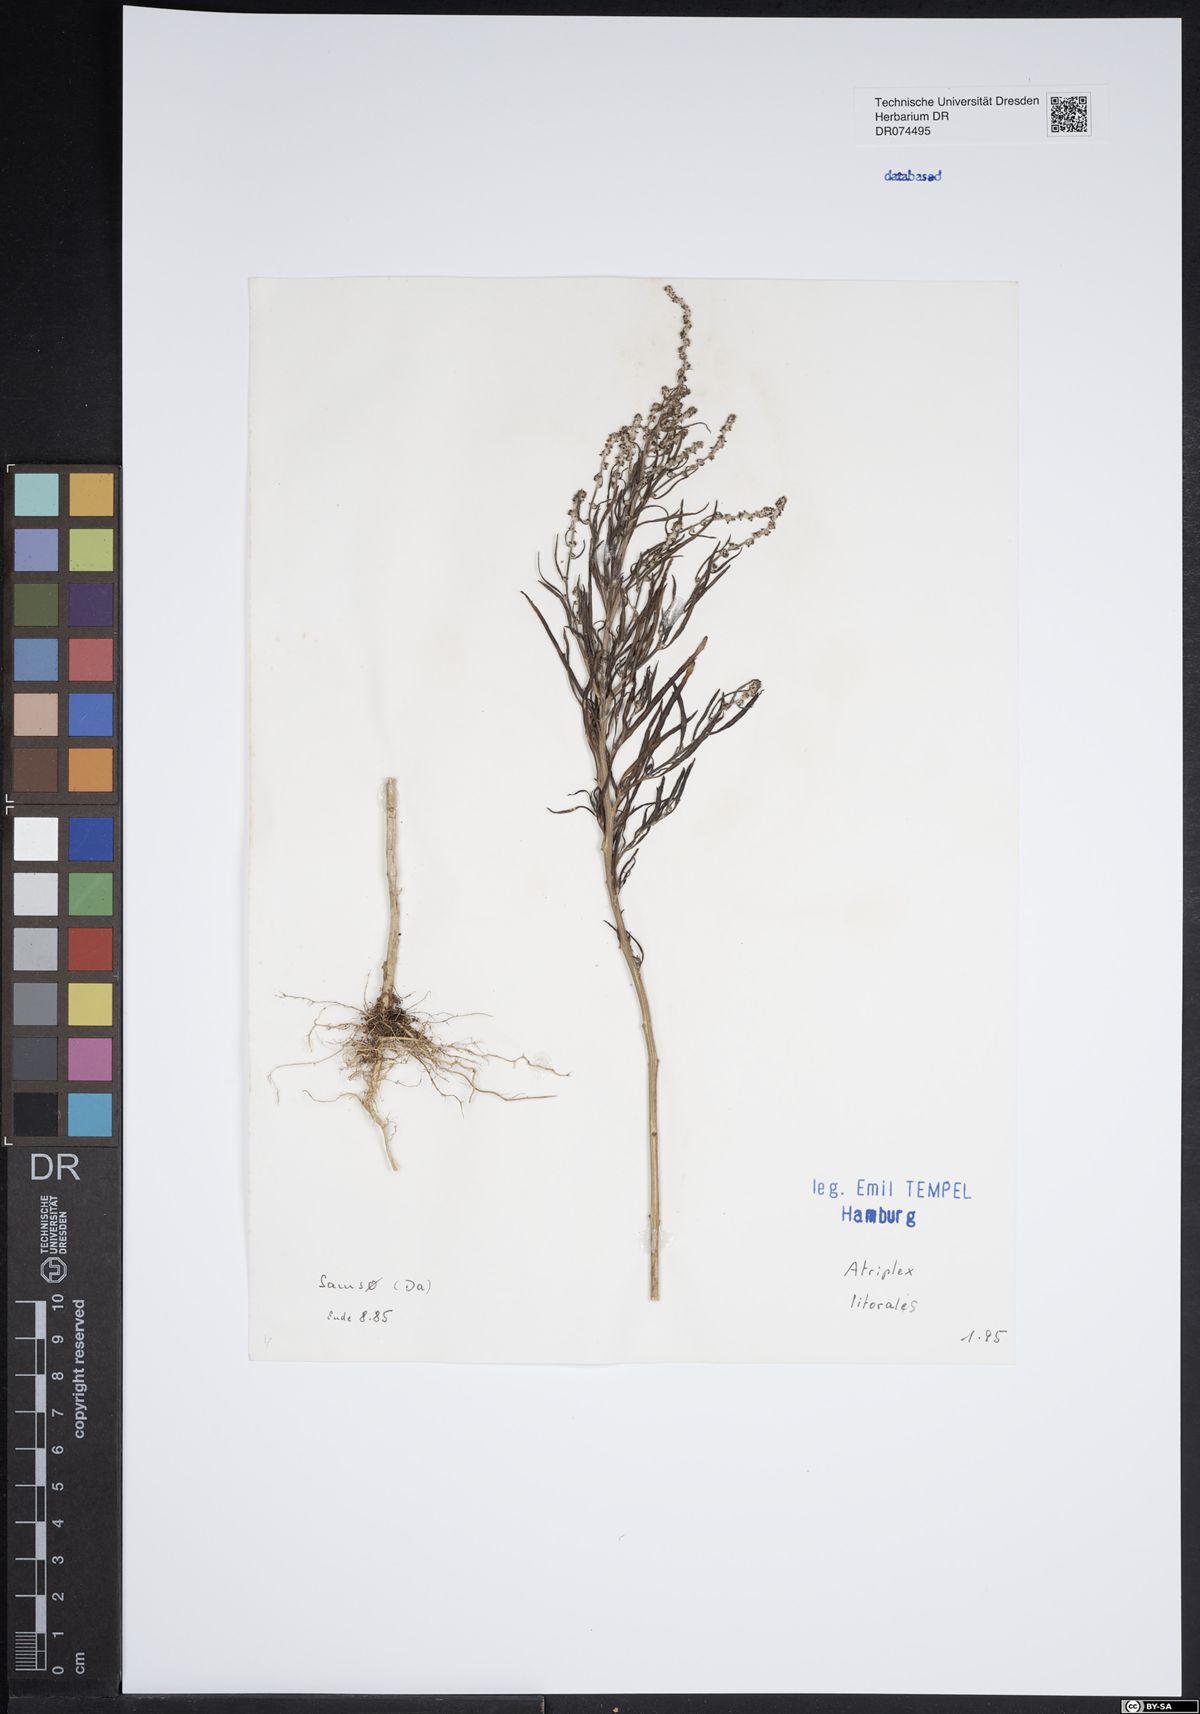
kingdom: Plantae
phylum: Tracheophyta
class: Magnoliopsida
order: Caryophyllales
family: Amaranthaceae
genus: Atriplex
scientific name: Atriplex littoralis
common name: Grass-leaved orache
